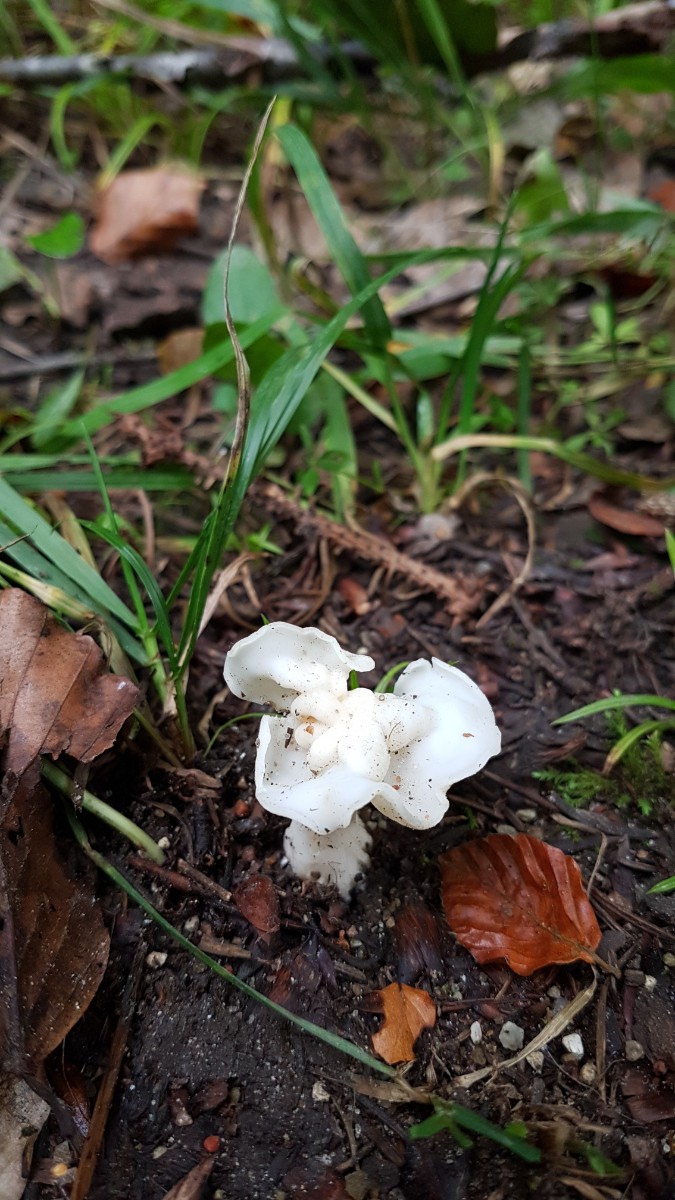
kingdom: Fungi
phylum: Ascomycota
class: Pezizomycetes
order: Pezizales
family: Helvellaceae
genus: Helvella
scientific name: Helvella crispa
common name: kruset foldhat
